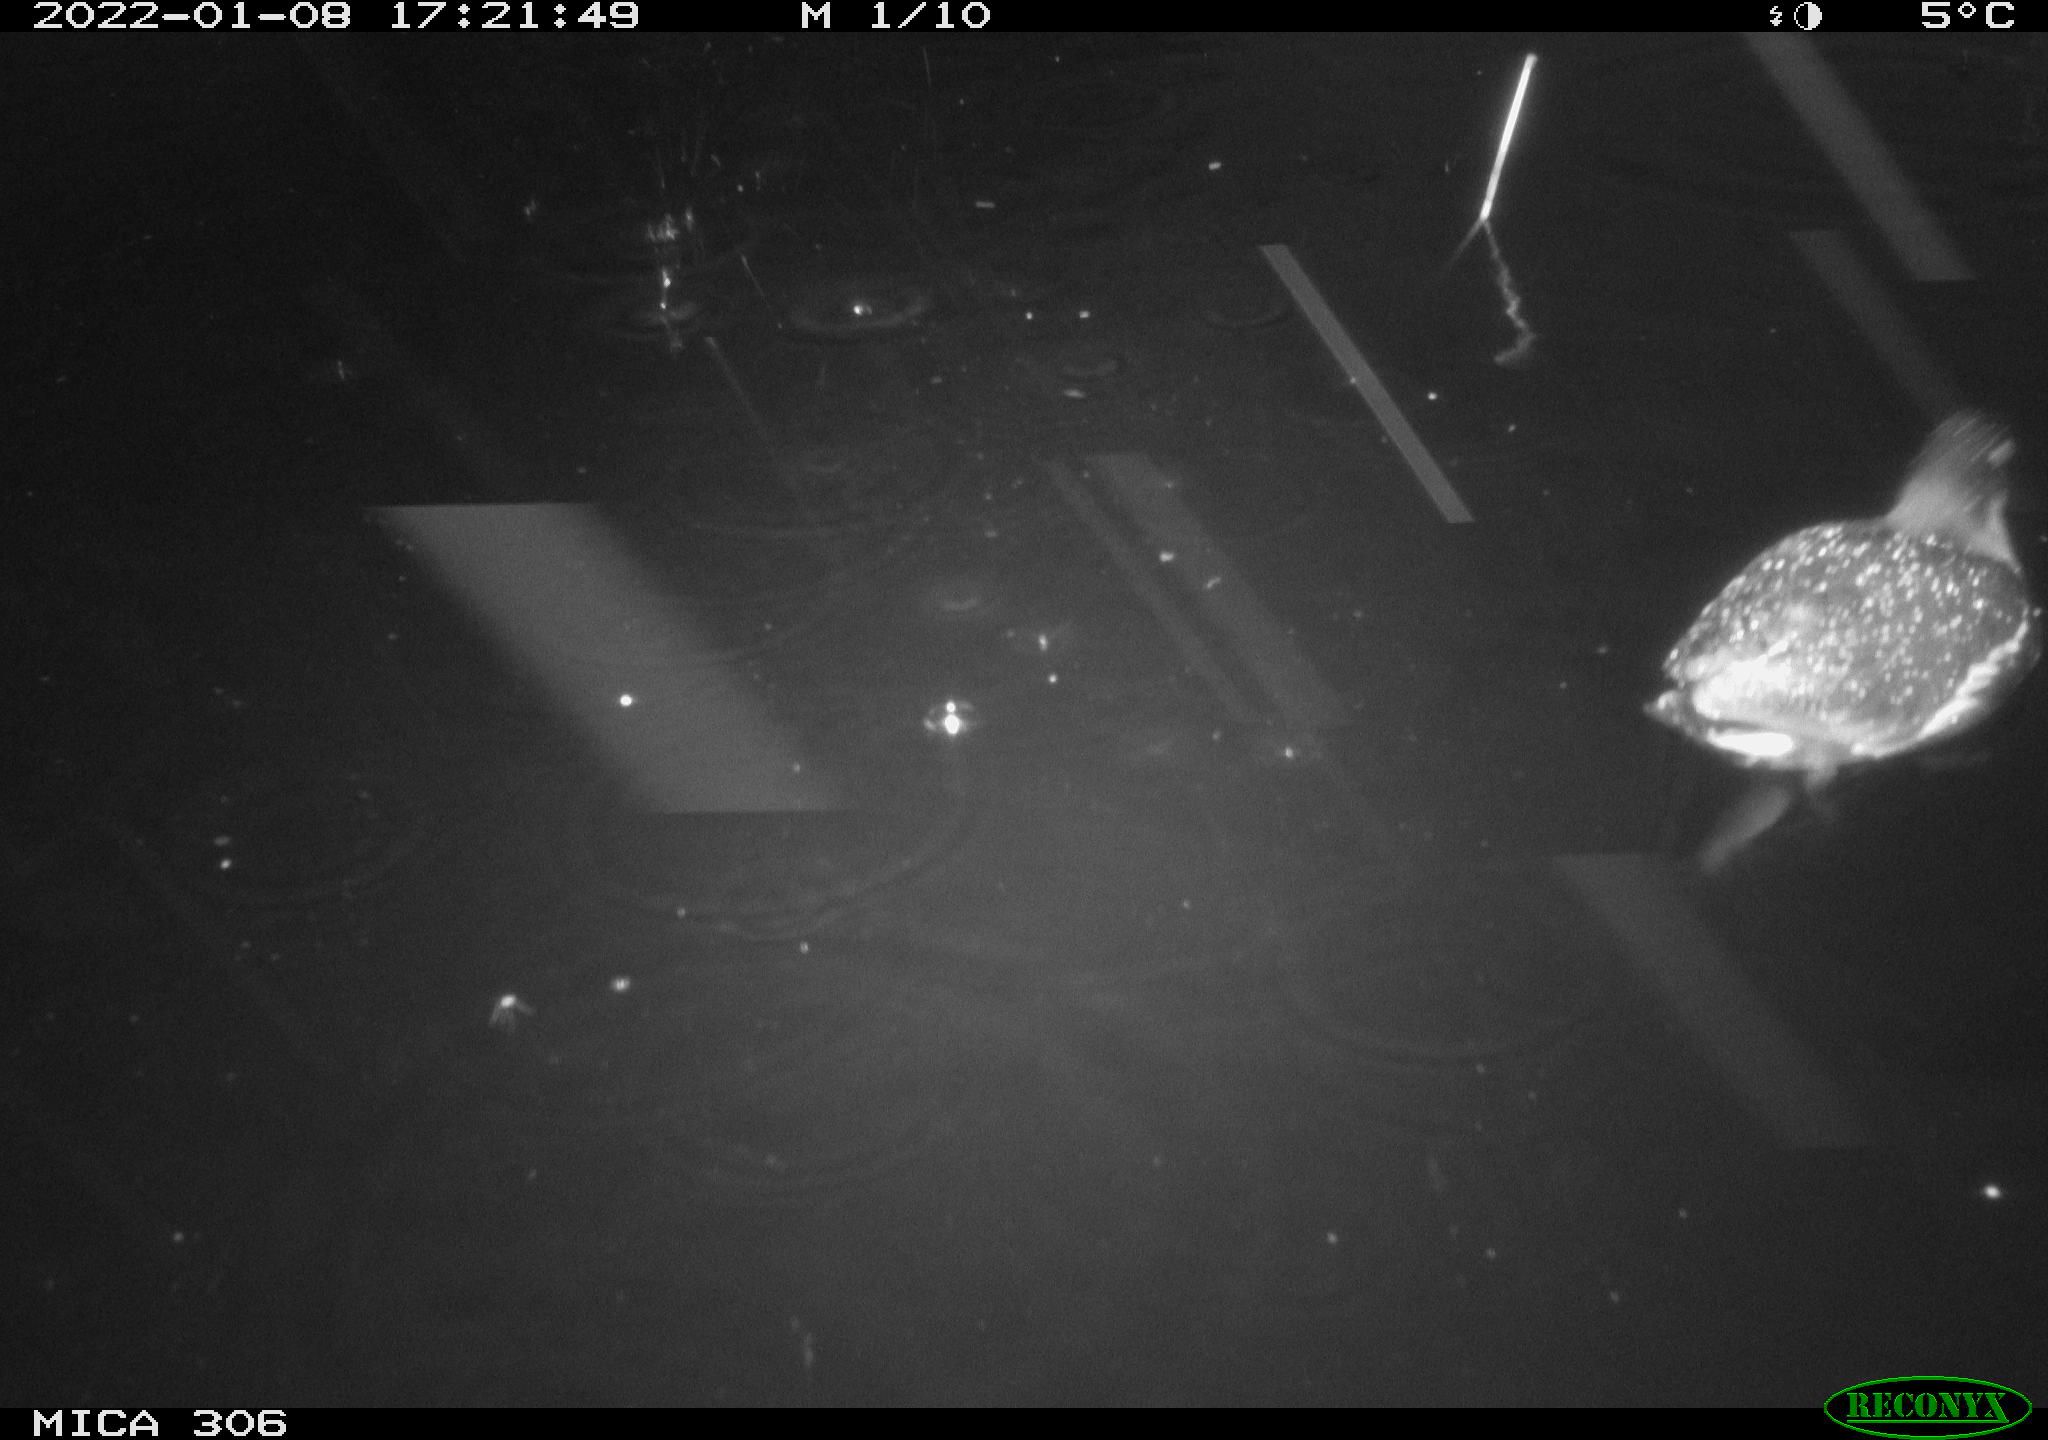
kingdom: Animalia
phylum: Chordata
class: Aves
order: Gruiformes
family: Rallidae
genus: Gallinula
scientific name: Gallinula chloropus
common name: Common moorhen
